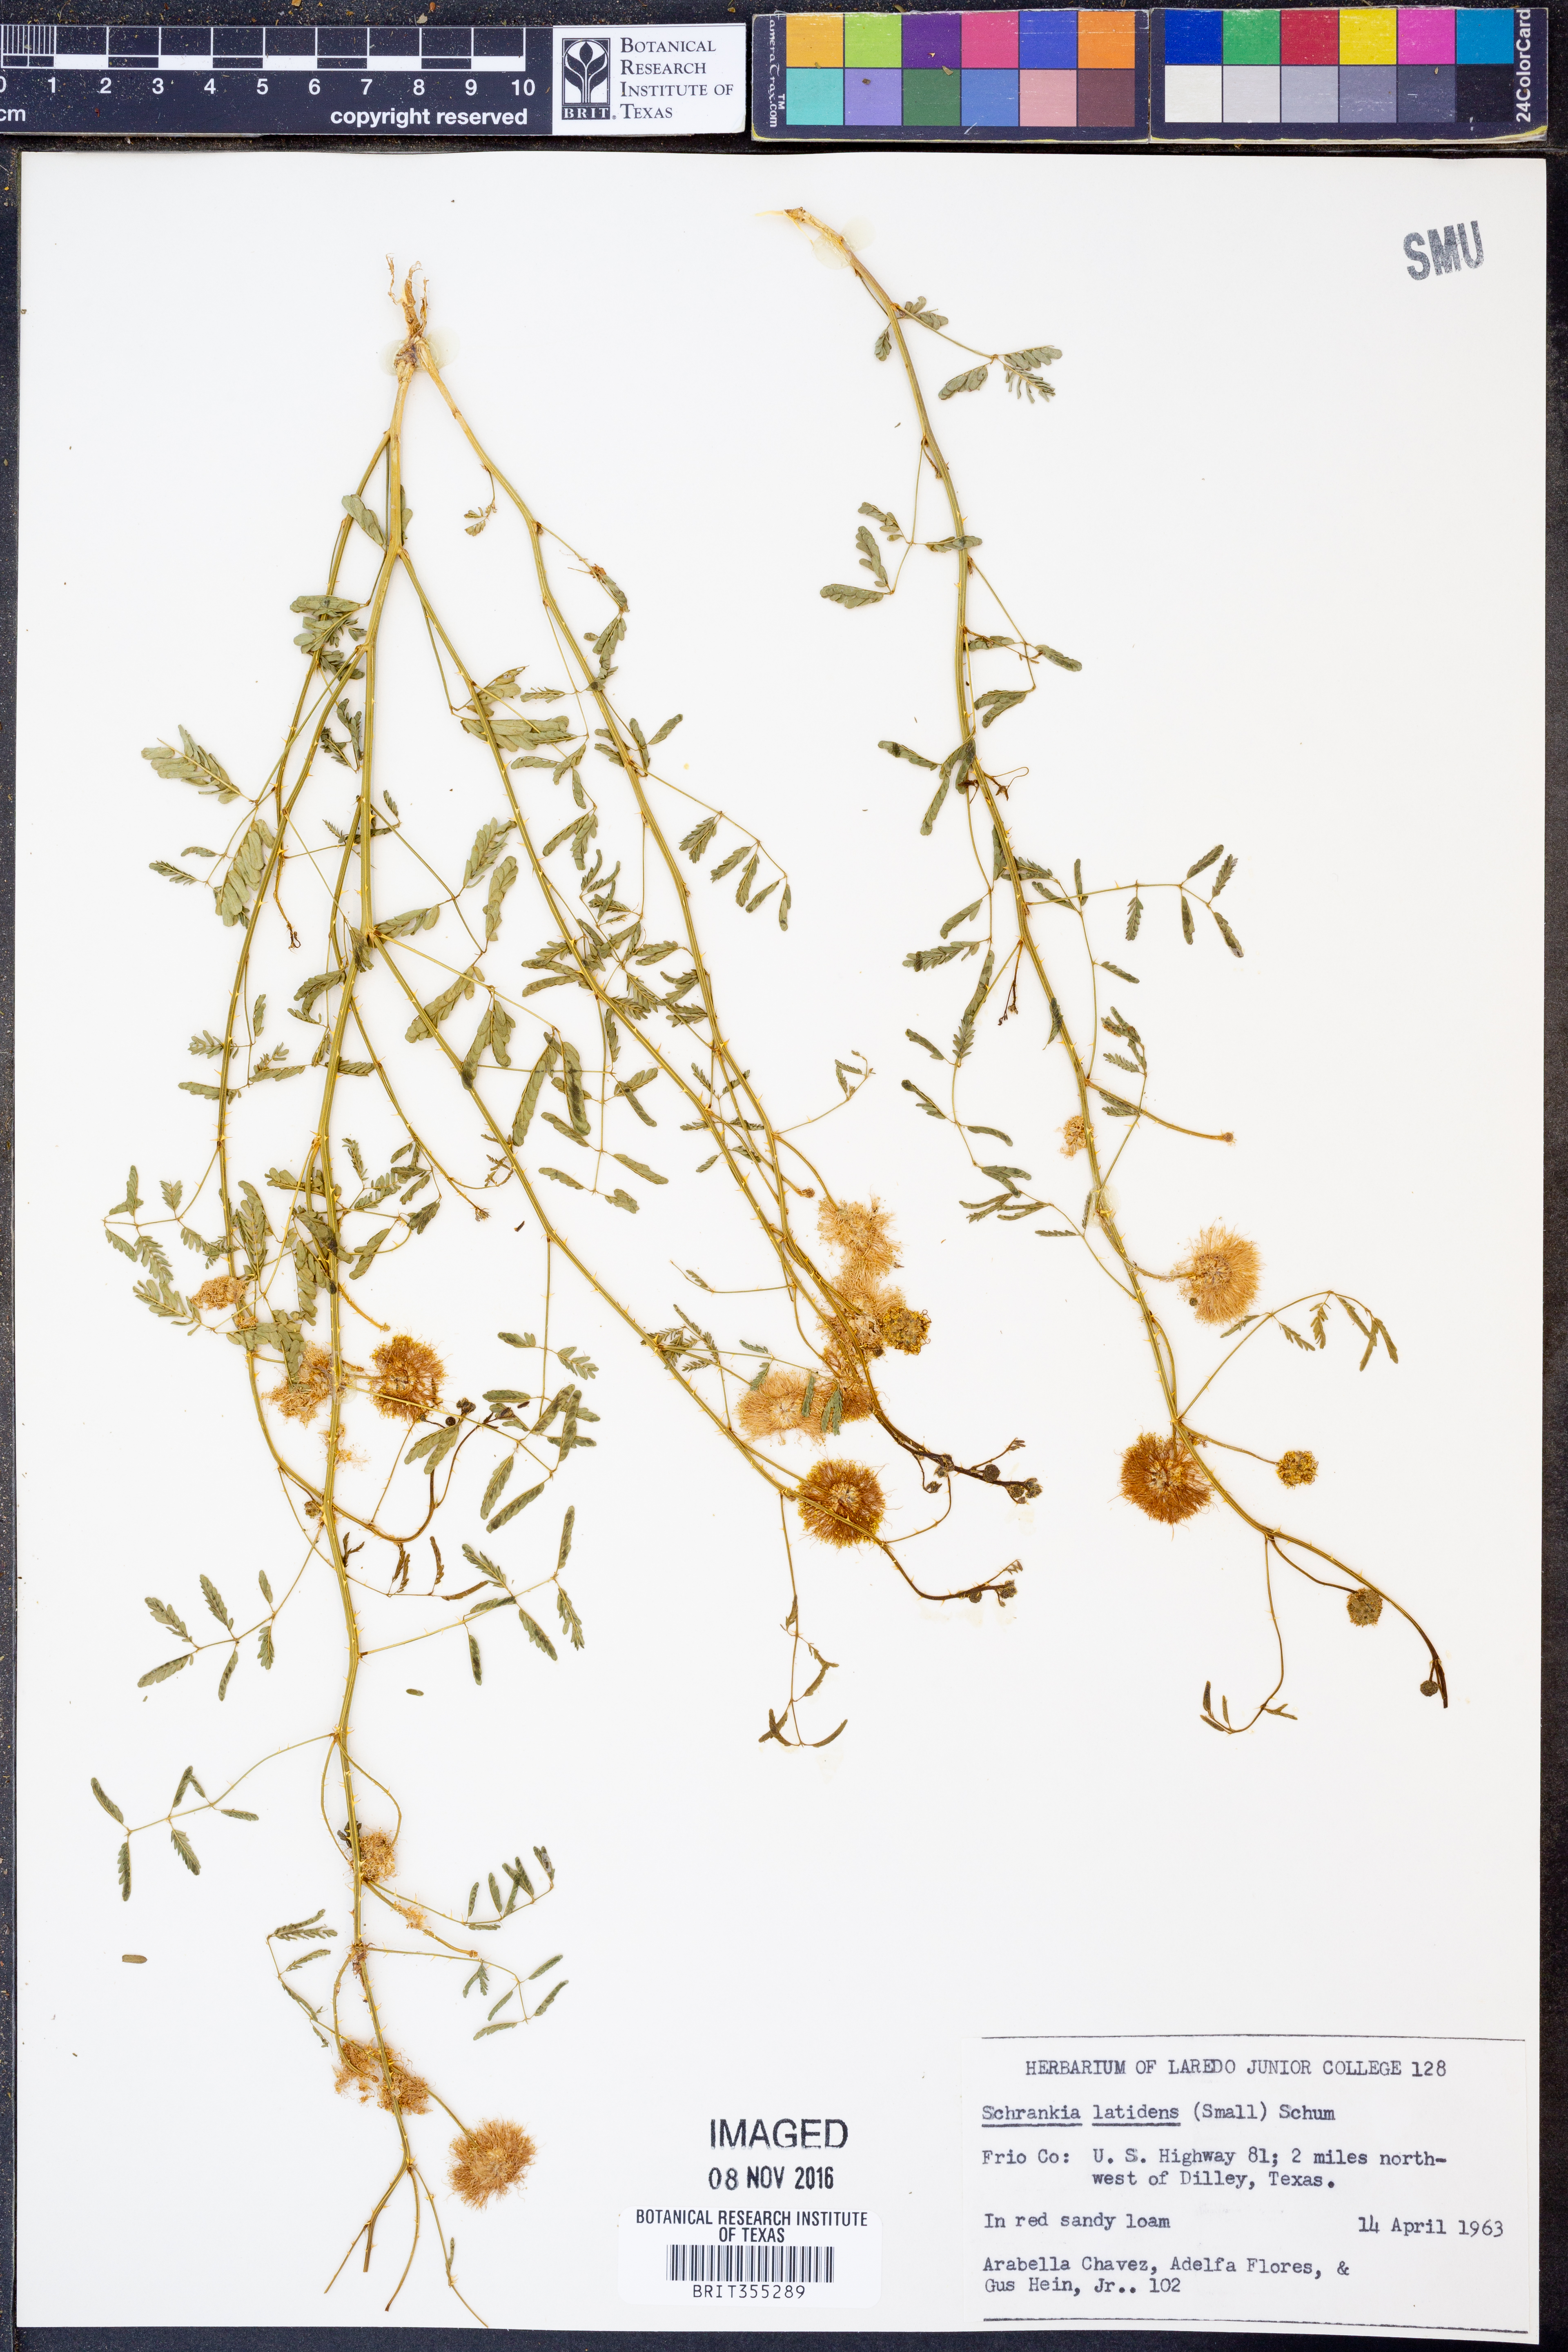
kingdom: Plantae
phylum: Tracheophyta
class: Magnoliopsida
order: Fabales
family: Fabaceae
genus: Mimosa
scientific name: Mimosa quadrivalvis
